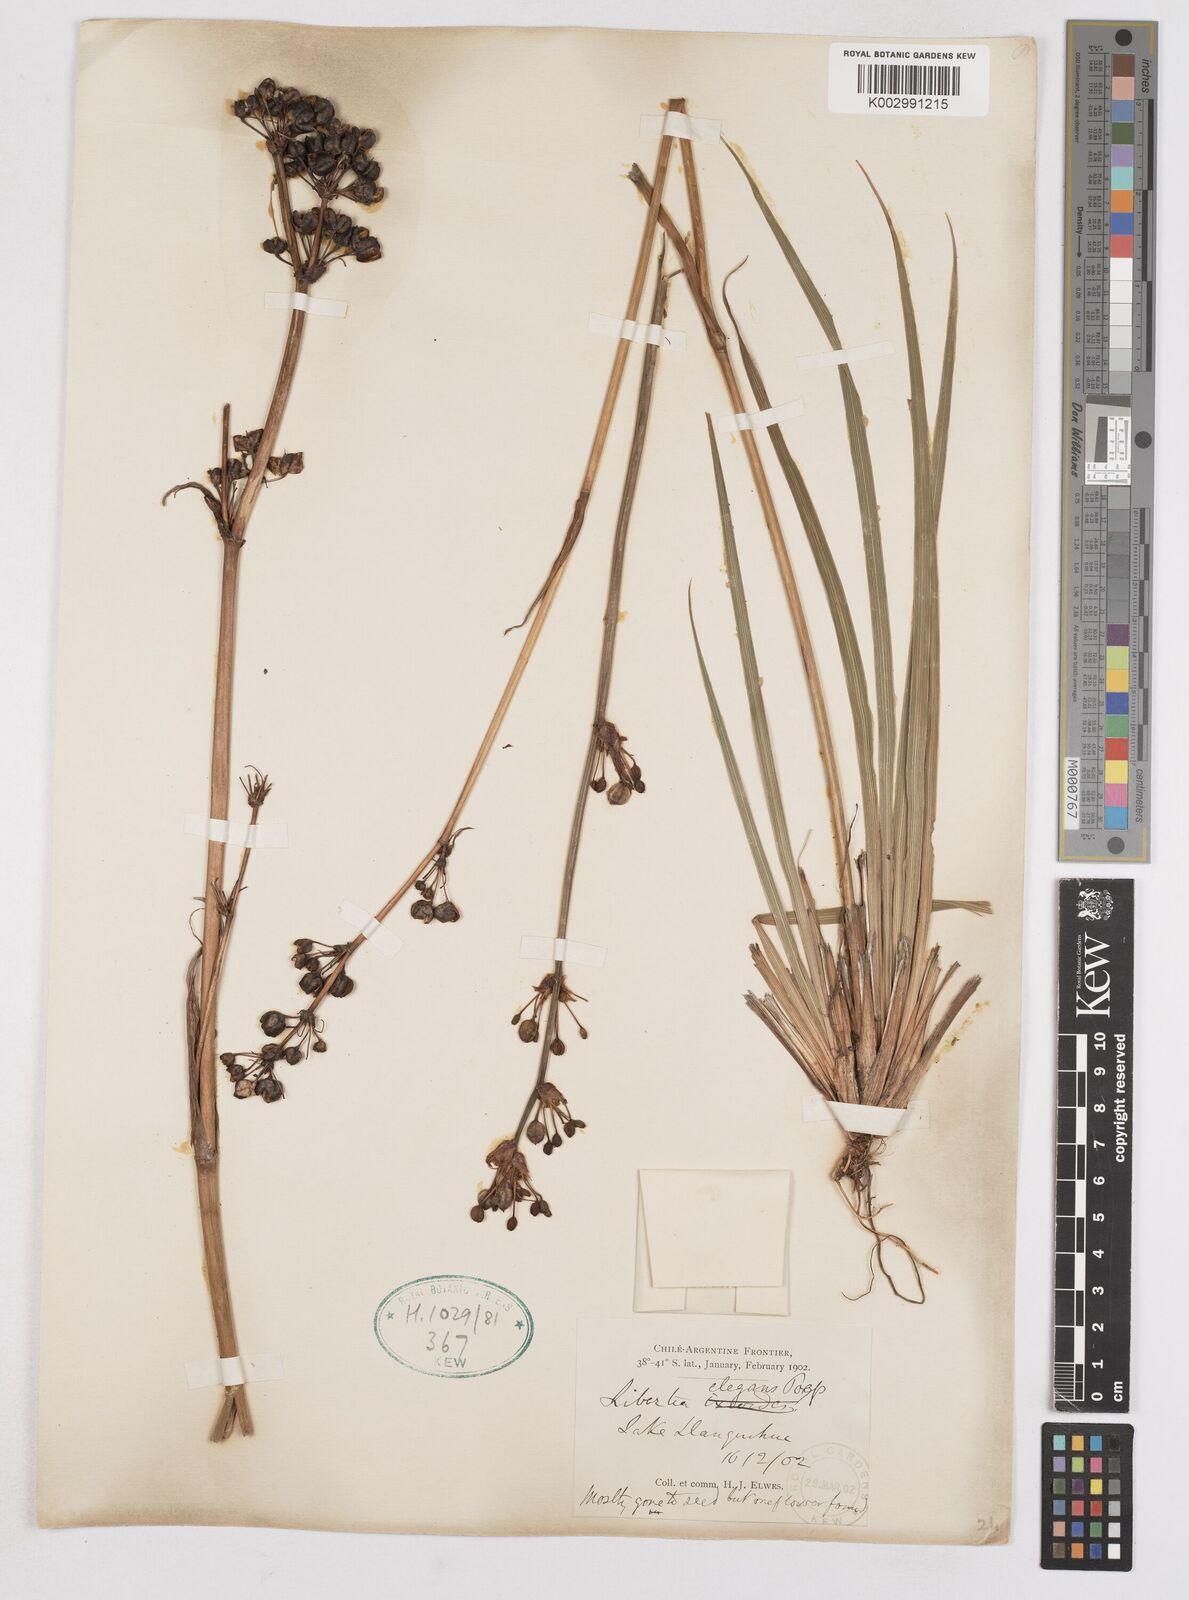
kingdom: Plantae
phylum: Tracheophyta
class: Liliopsida
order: Asparagales
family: Iridaceae
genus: Libertia
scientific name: Libertia chilensis
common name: Satin flower
